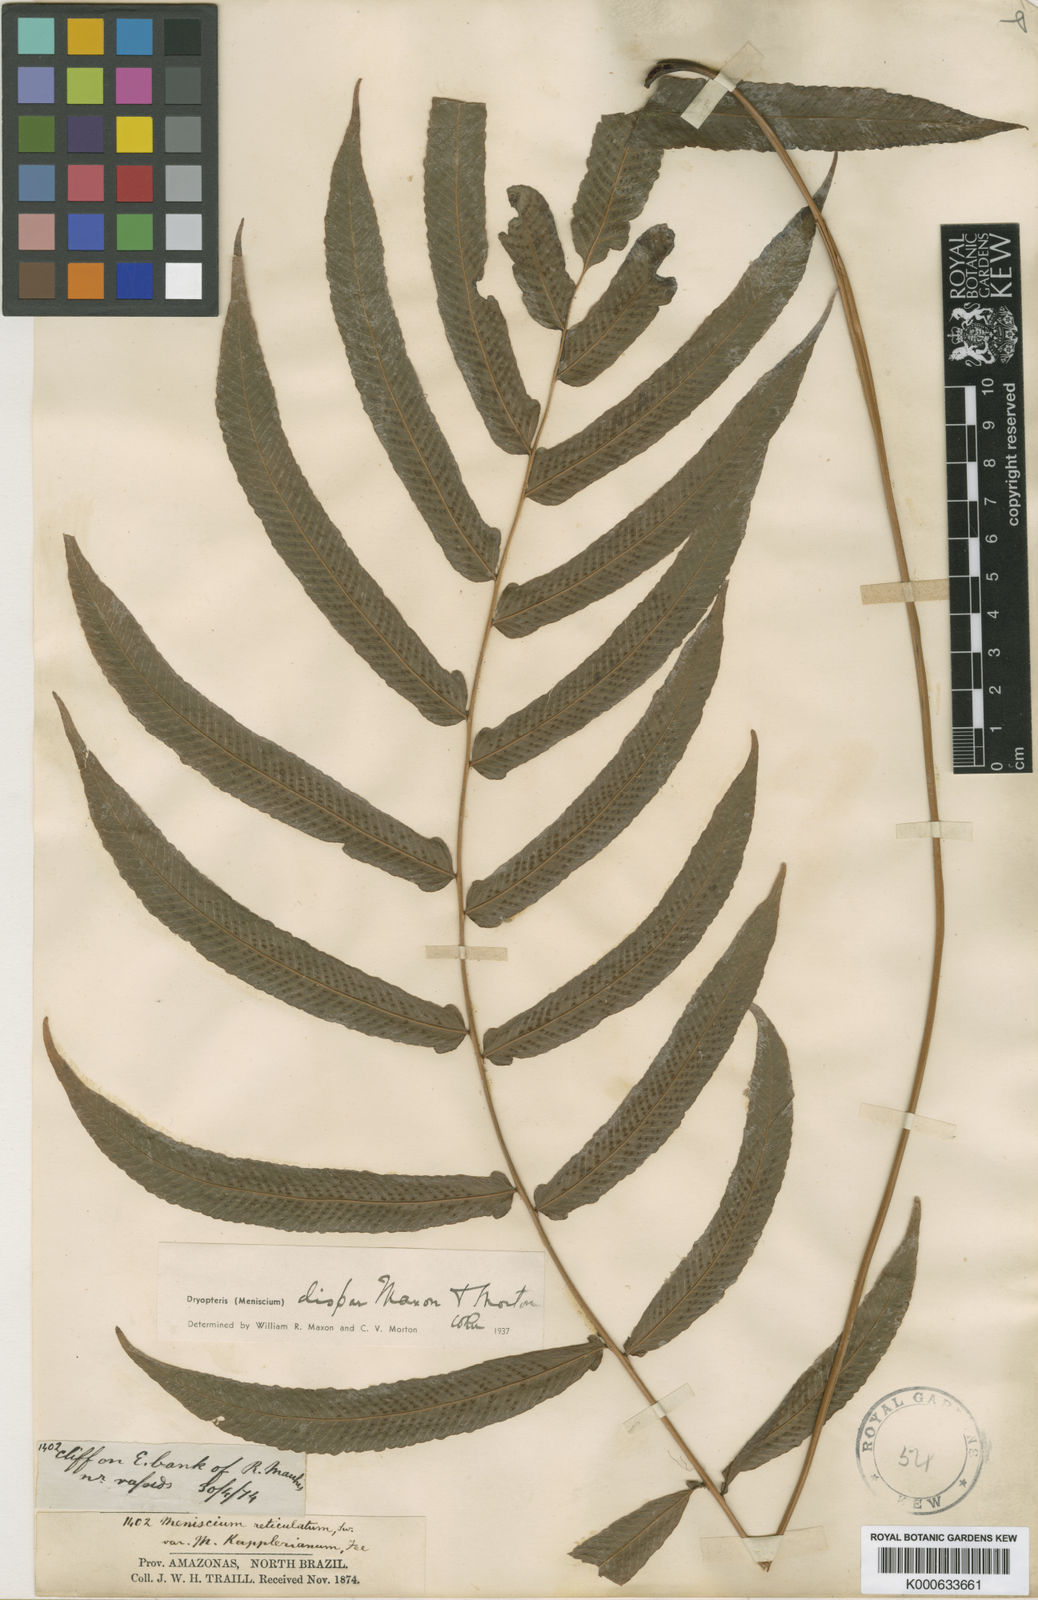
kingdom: Plantae
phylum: Tracheophyta
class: Polypodiopsida
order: Polypodiales
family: Thelypteridaceae
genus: Meniscium
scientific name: Meniscium
